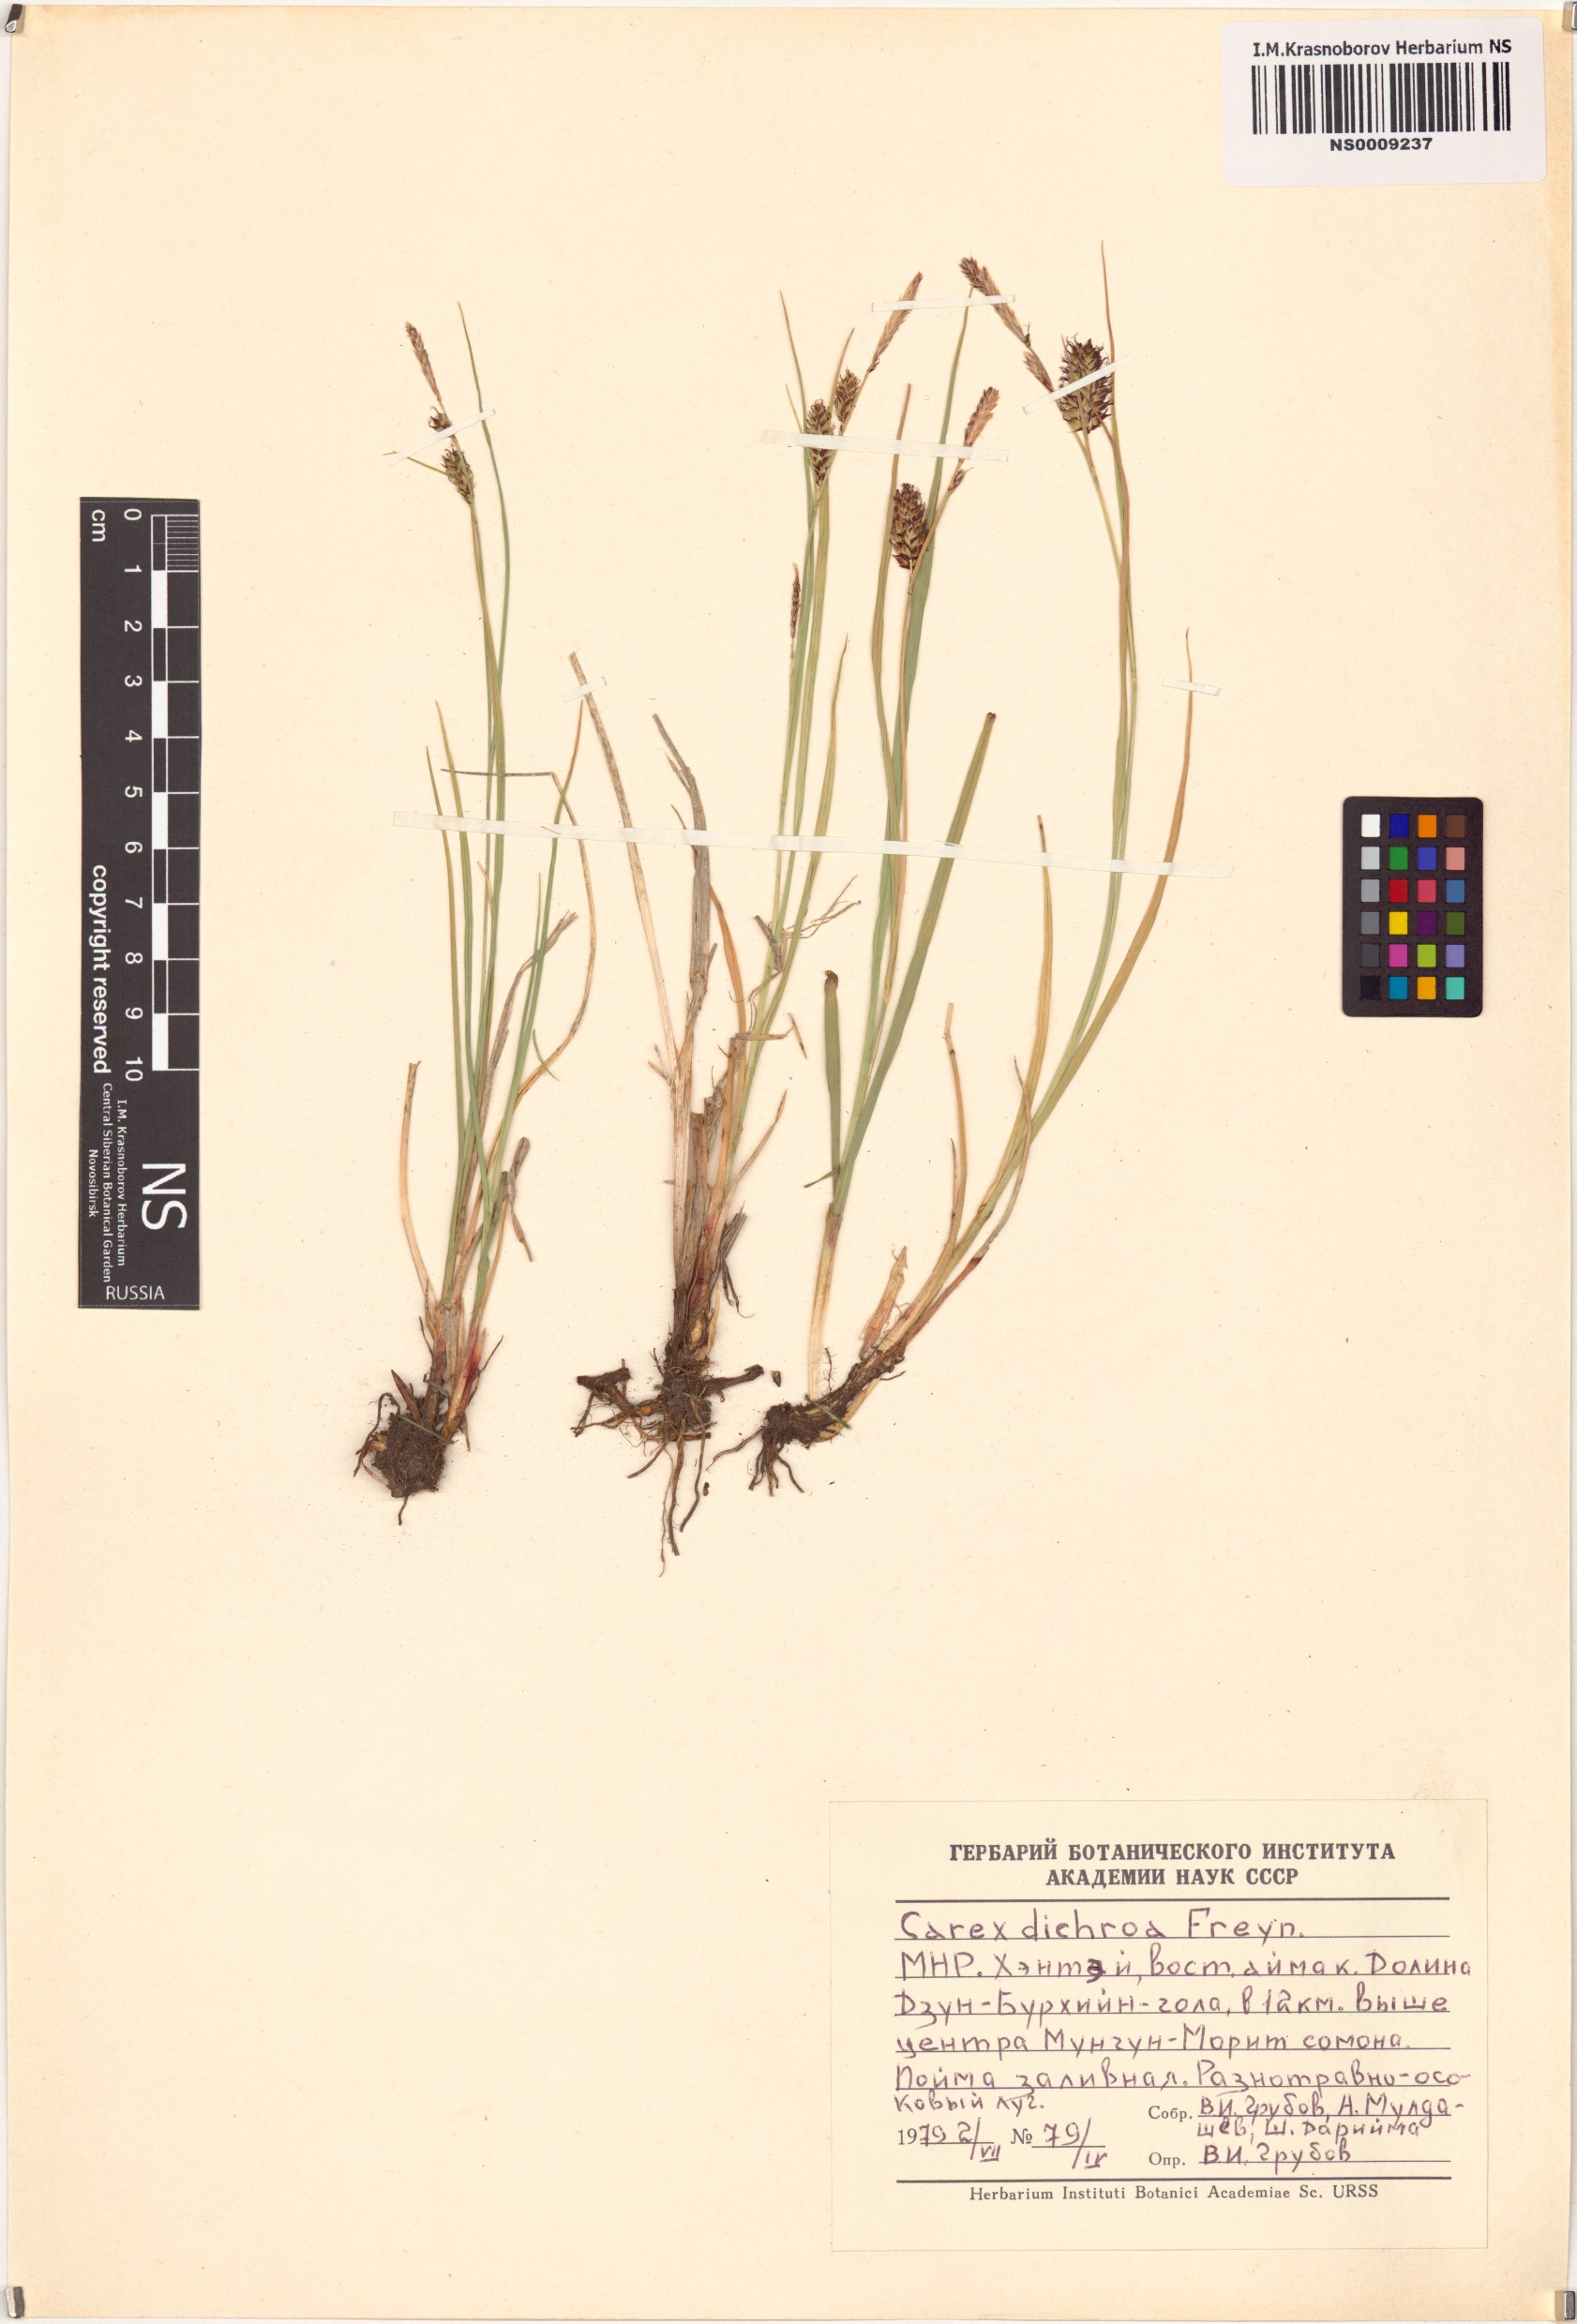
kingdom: Plantae
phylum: Tracheophyta
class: Liliopsida
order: Poales
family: Cyperaceae
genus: Carex
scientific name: Carex pamirensis
